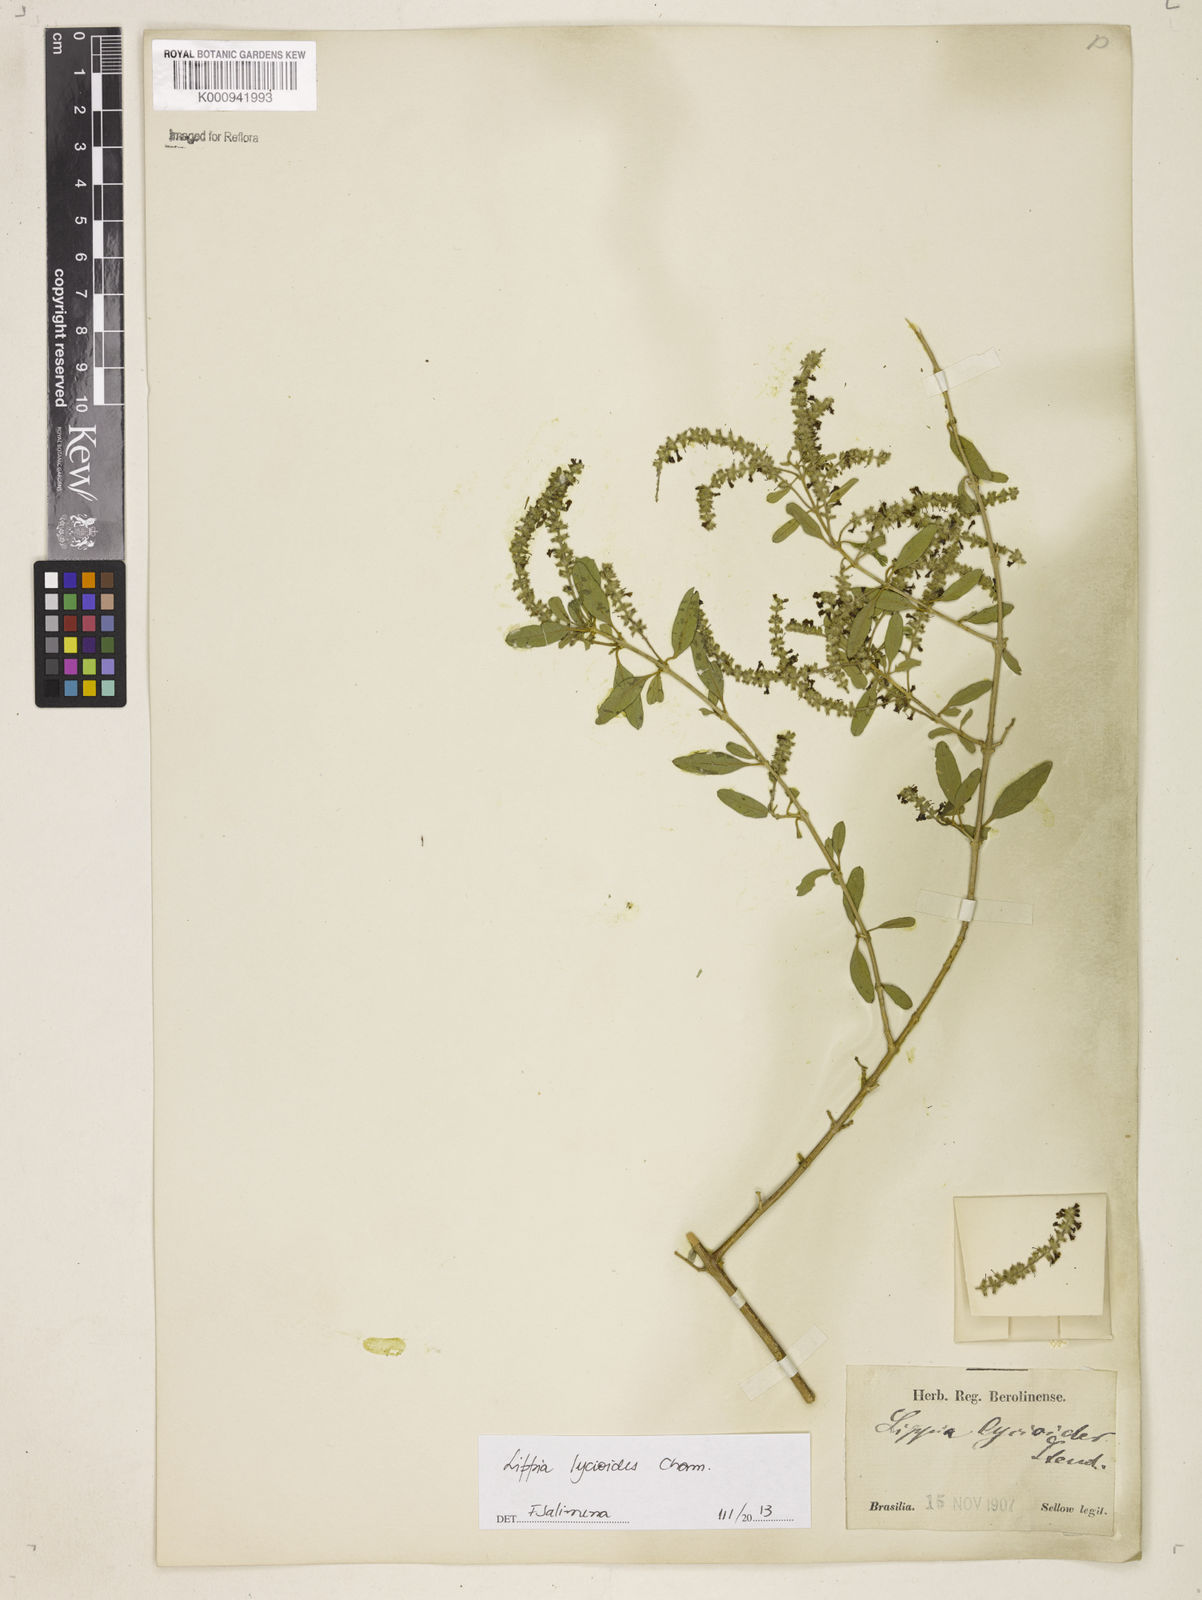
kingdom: Plantae
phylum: Tracheophyta
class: Magnoliopsida
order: Lamiales
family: Verbenaceae
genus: Aloysia
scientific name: Aloysia
